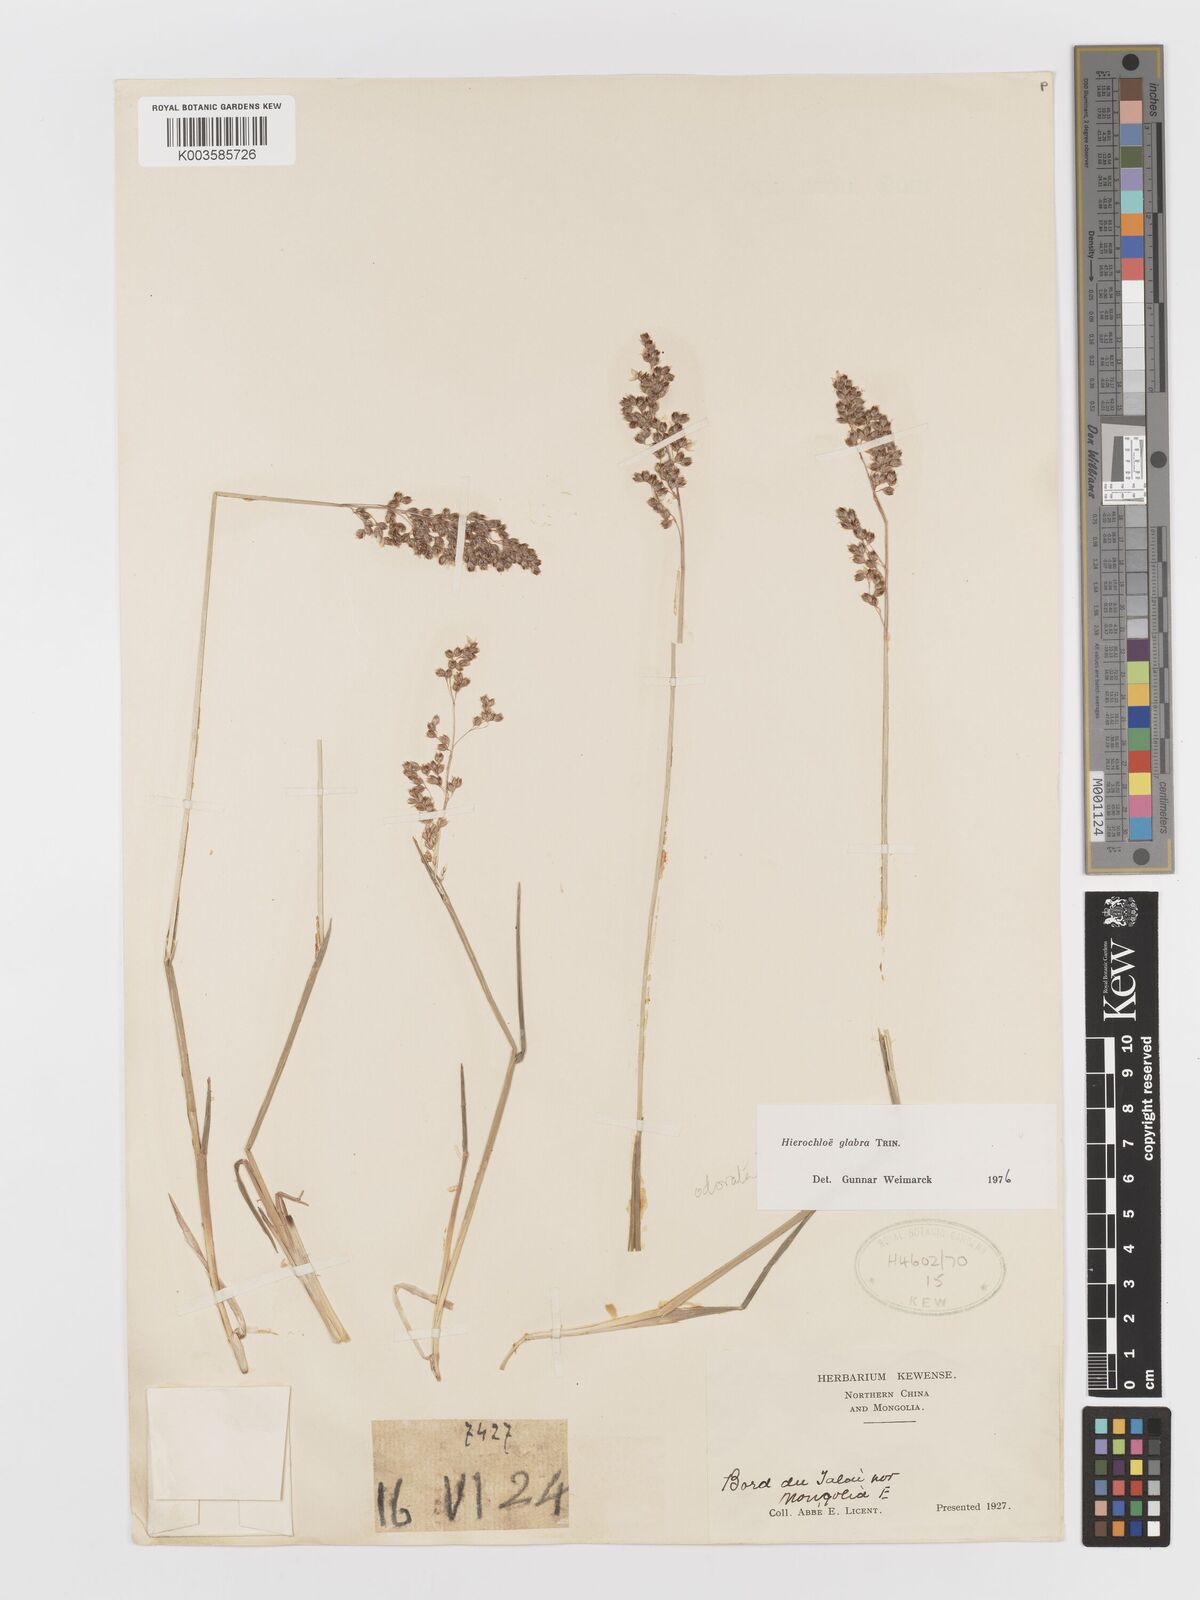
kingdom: Plantae
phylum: Tracheophyta
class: Liliopsida
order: Poales
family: Poaceae
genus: Anthoxanthum
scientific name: Anthoxanthum glabrum
